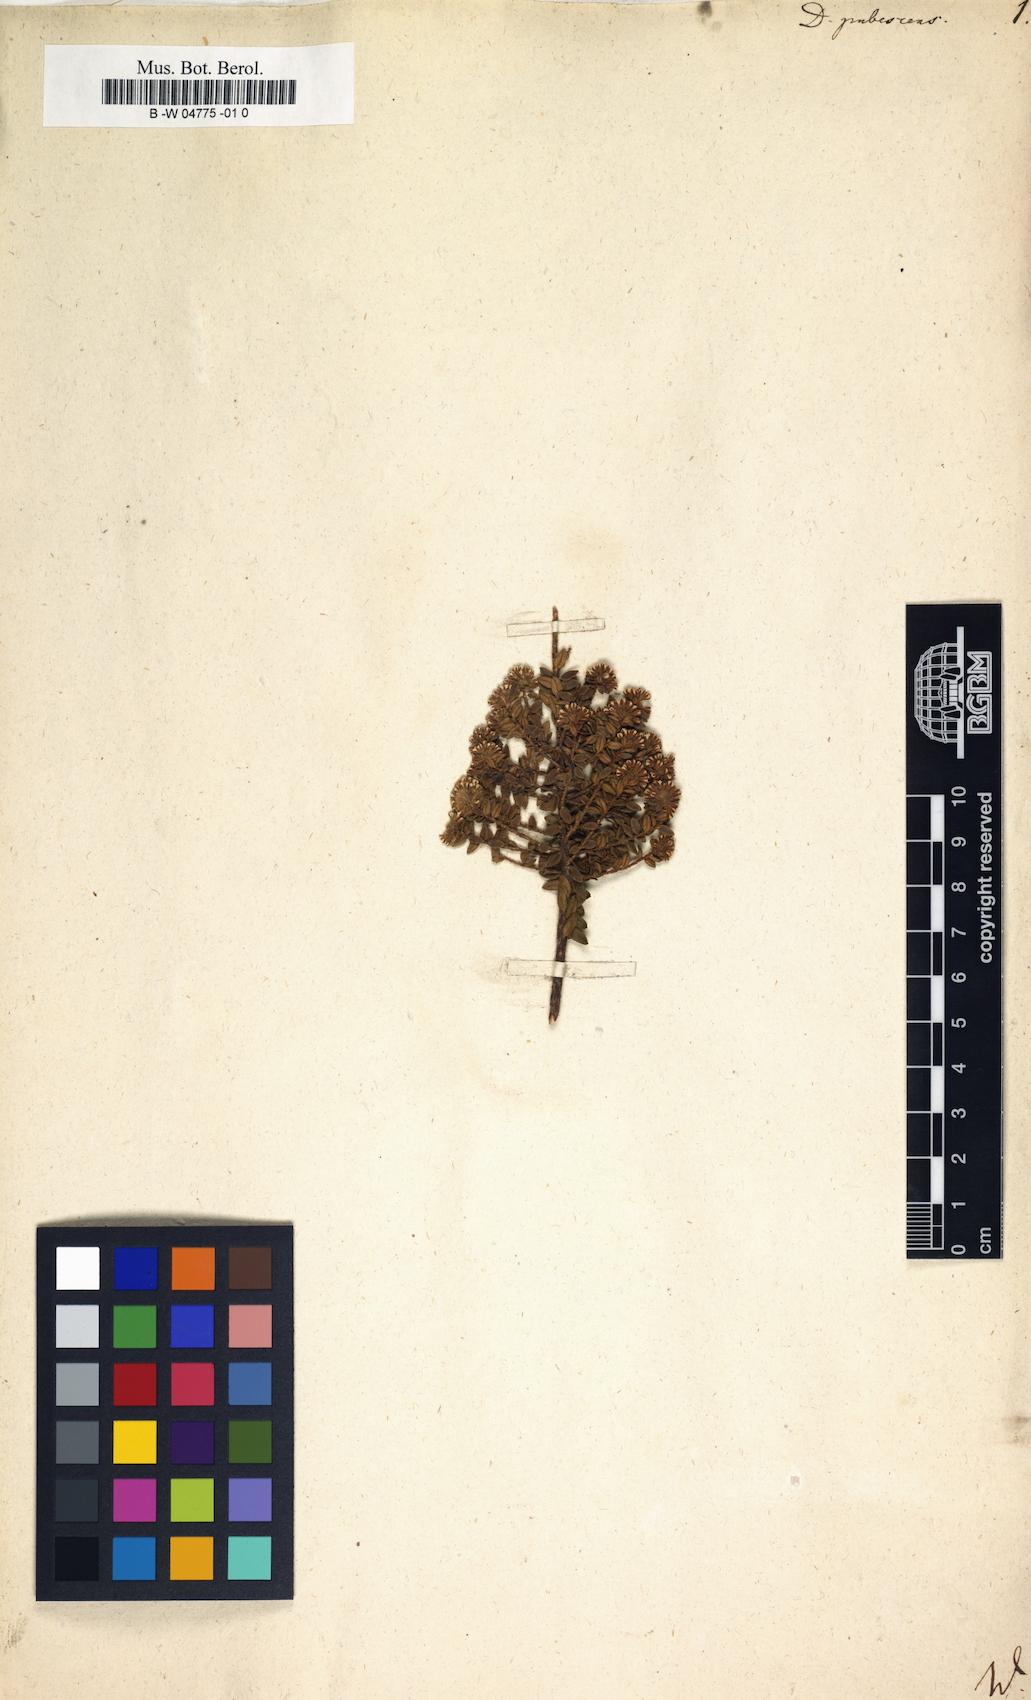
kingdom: Plantae
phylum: Tracheophyta
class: Magnoliopsida
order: Sapindales
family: Rutaceae
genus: Agathosma
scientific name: Agathosma corymbosa
